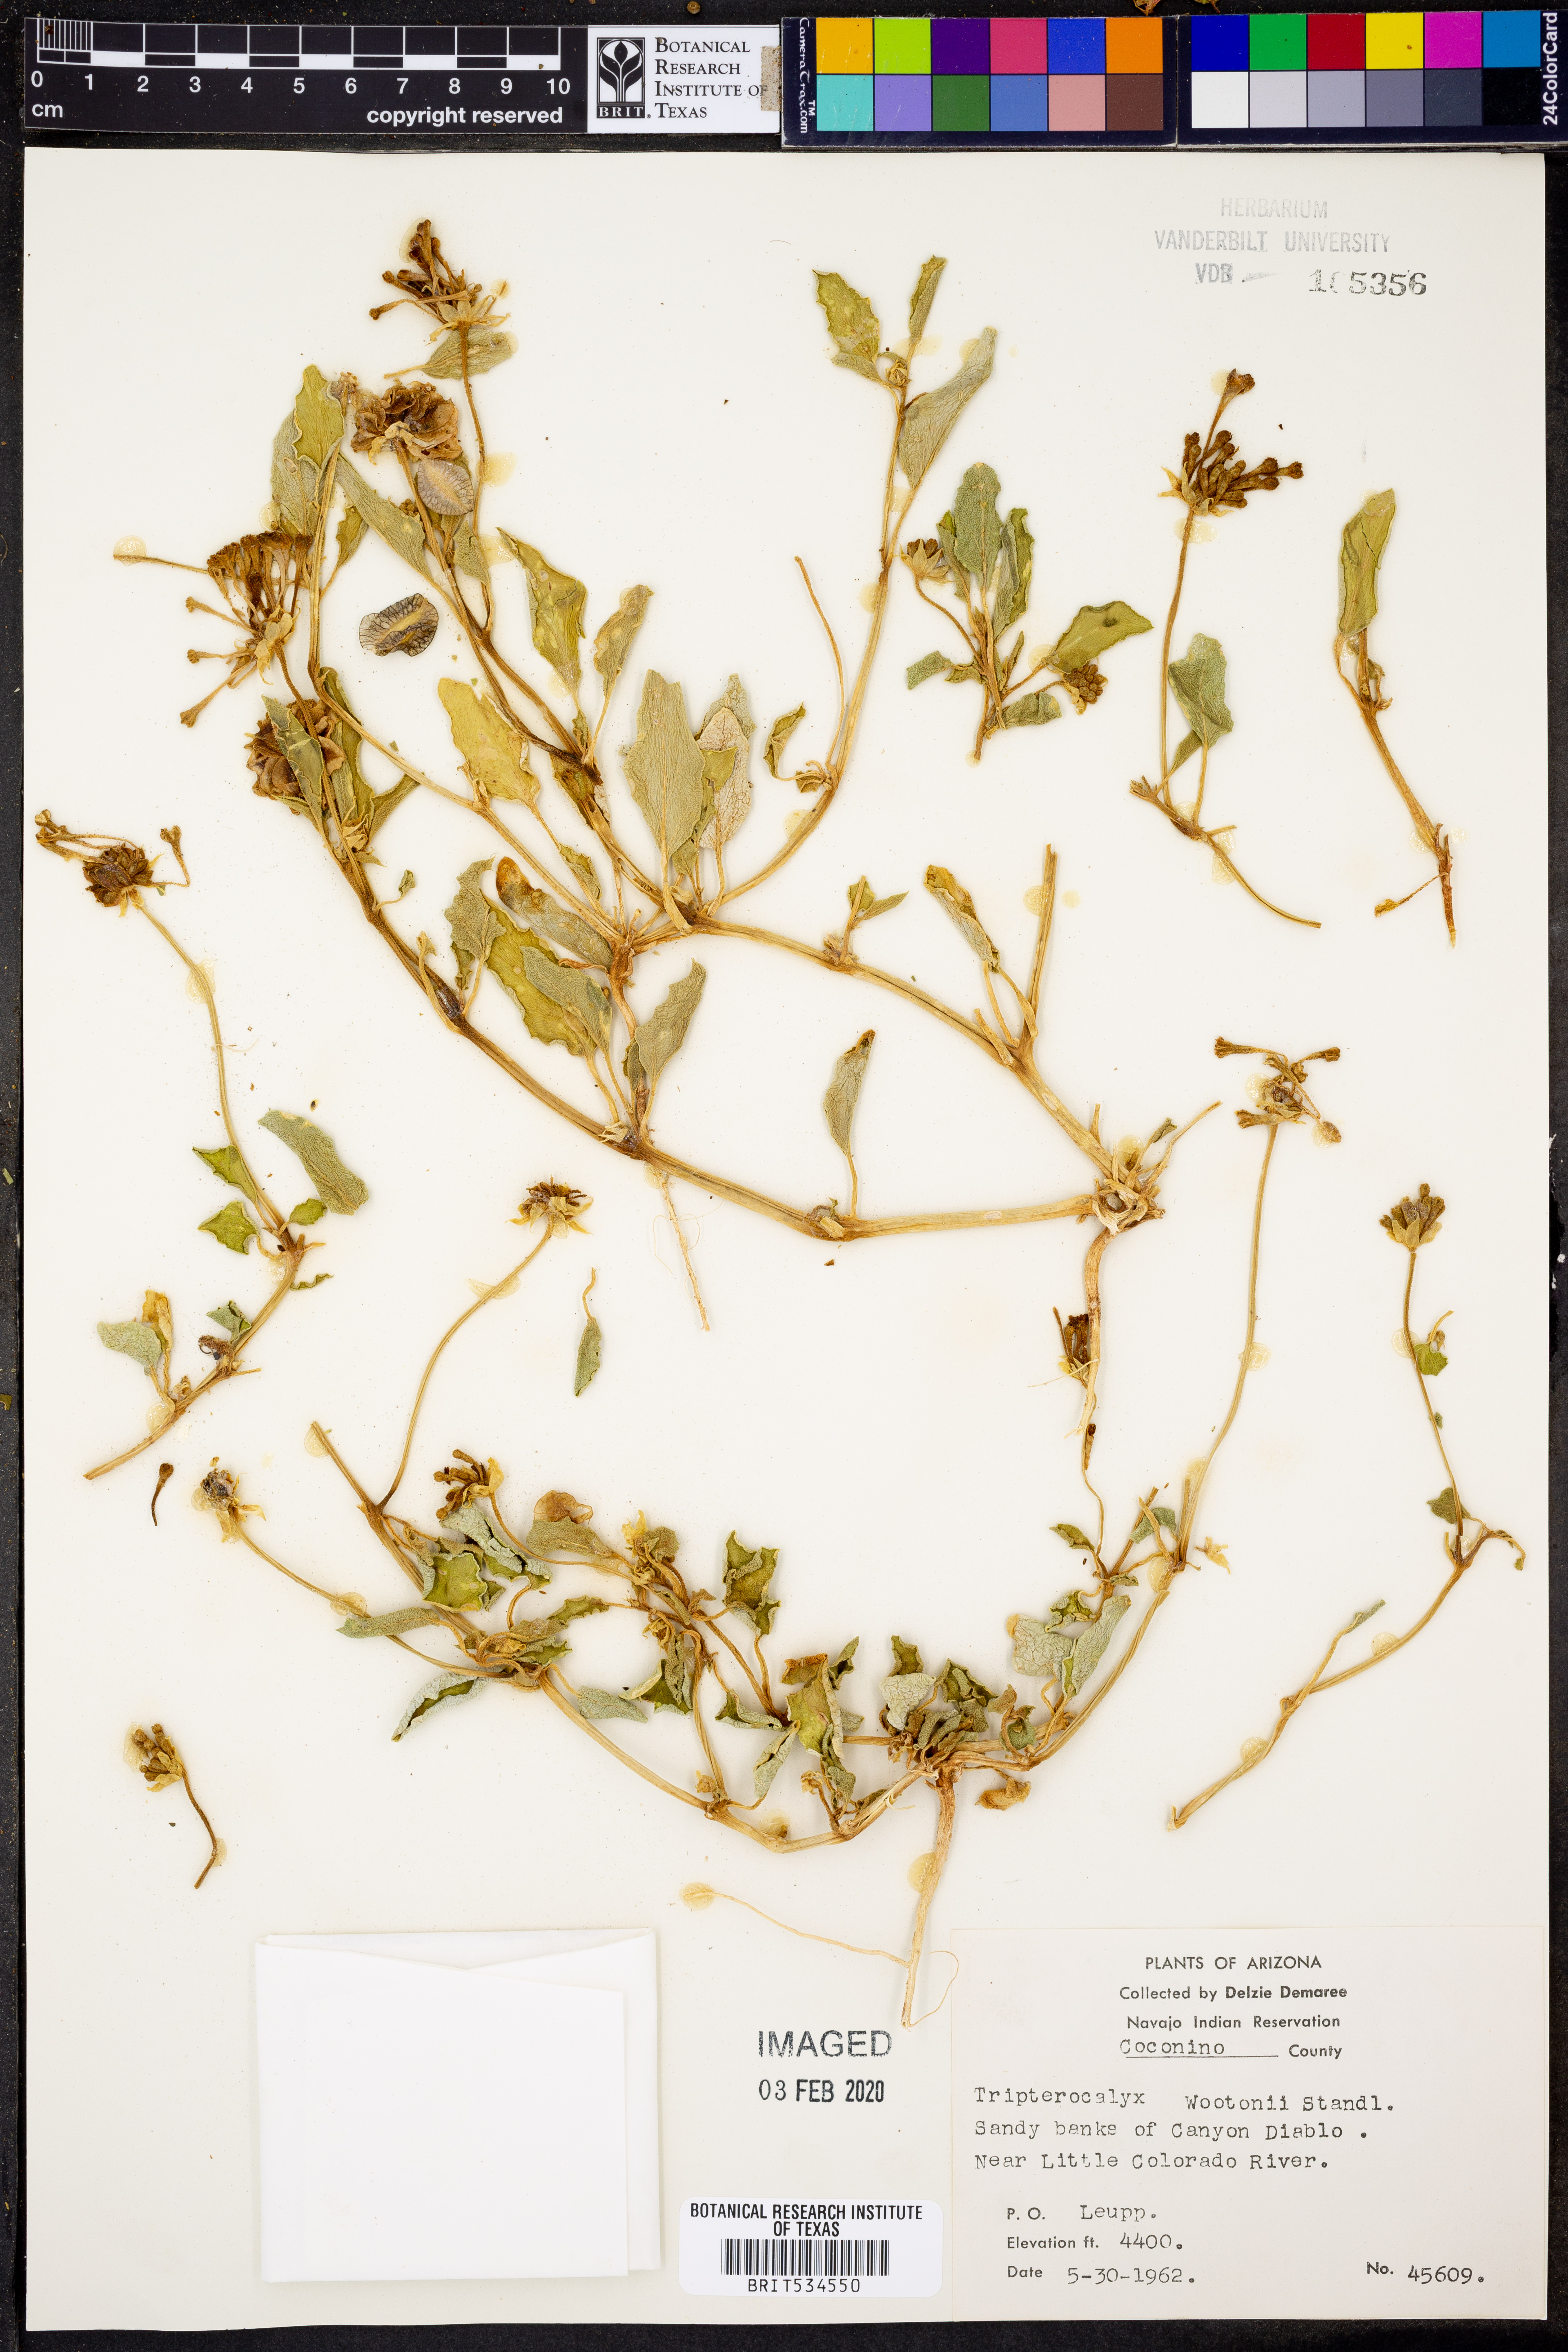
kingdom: Plantae
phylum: Tracheophyta
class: Magnoliopsida
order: Caryophyllales
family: Nyctaginaceae
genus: Tripterocalyx
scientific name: Tripterocalyx wootonii
